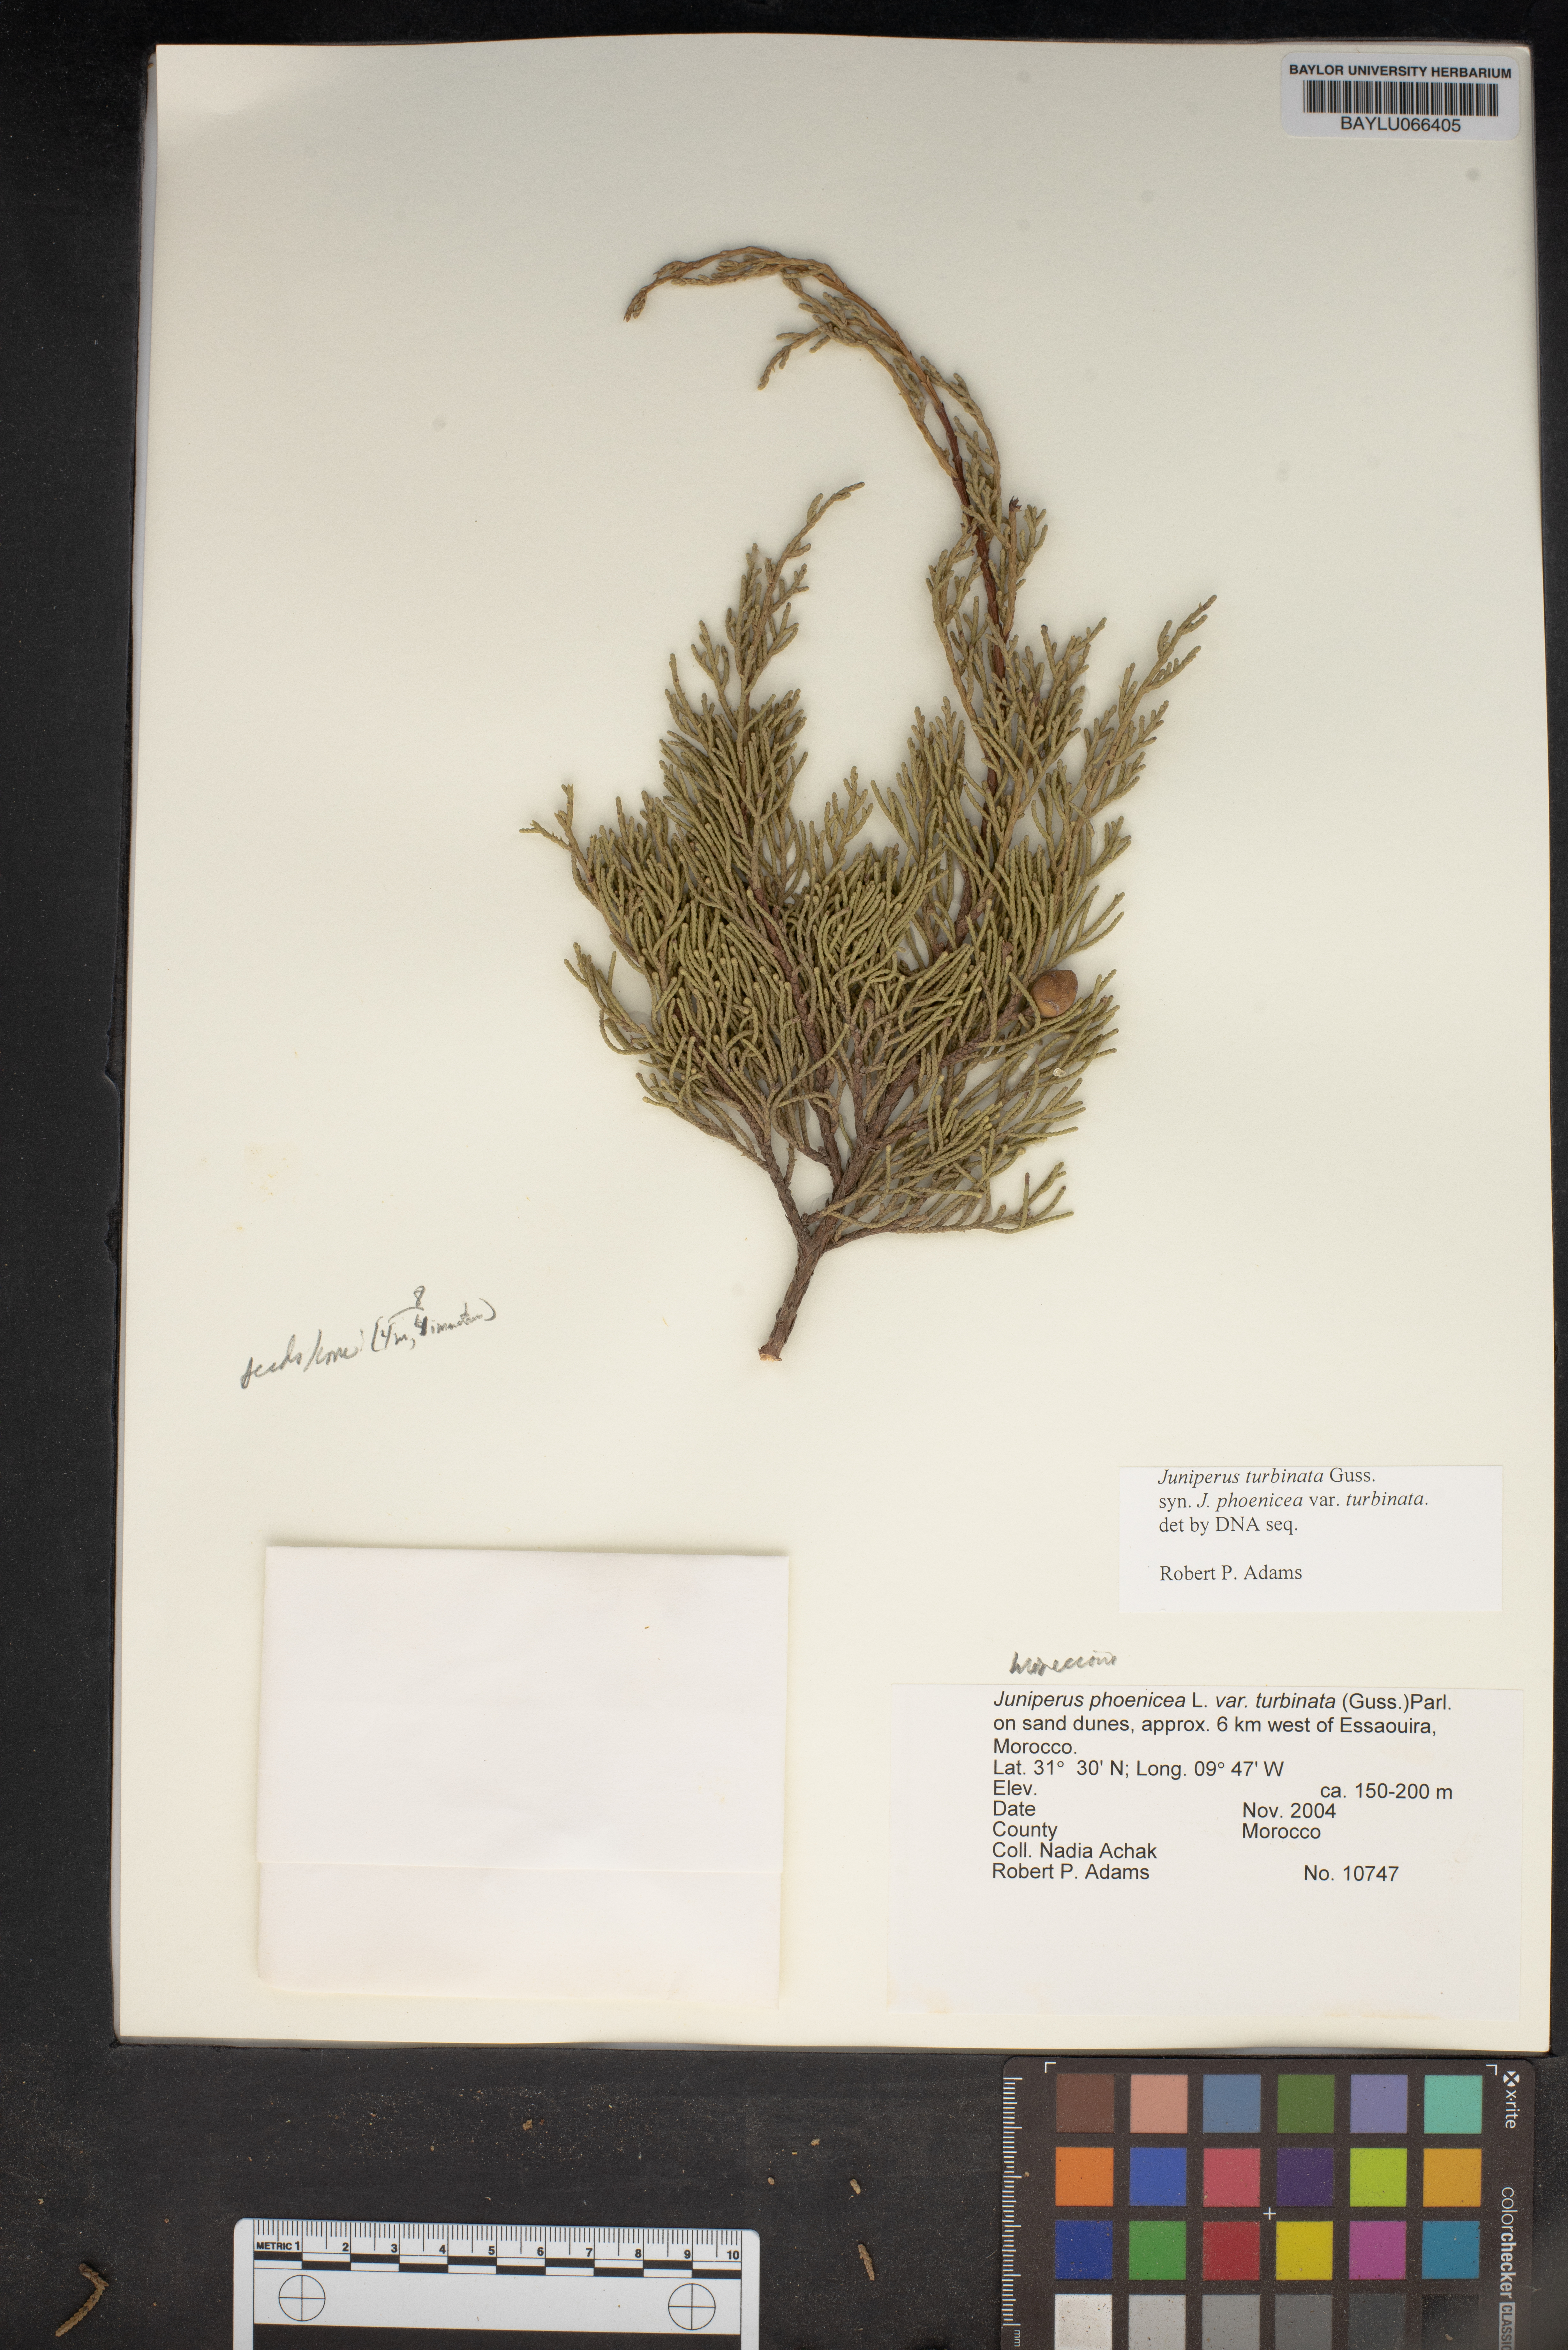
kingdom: Plantae
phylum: Tracheophyta
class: Pinopsida
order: Pinales
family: Cupressaceae
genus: Juniperus
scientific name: Juniperus phoenicea
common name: Phoenician juniper
